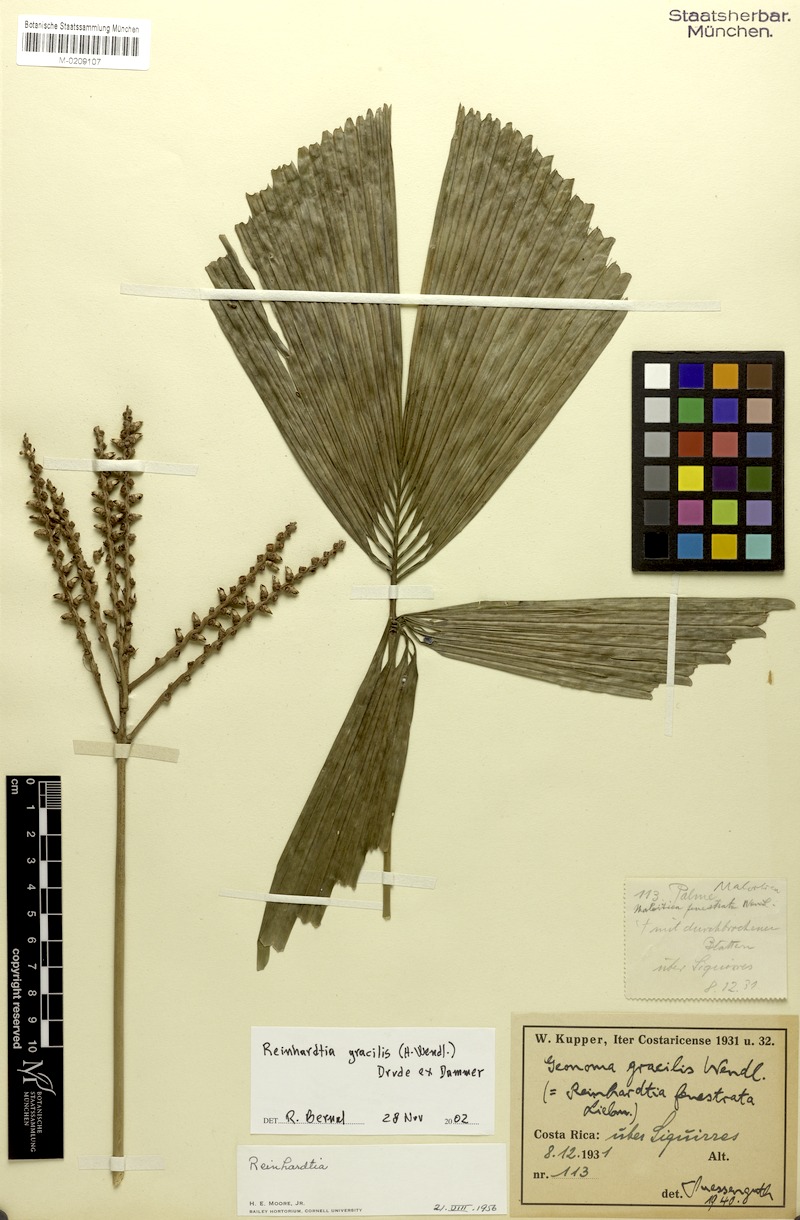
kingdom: Plantae
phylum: Tracheophyta
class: Liliopsida
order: Arecales
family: Arecaceae
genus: Reinhardtia
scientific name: Reinhardtia gracilis
